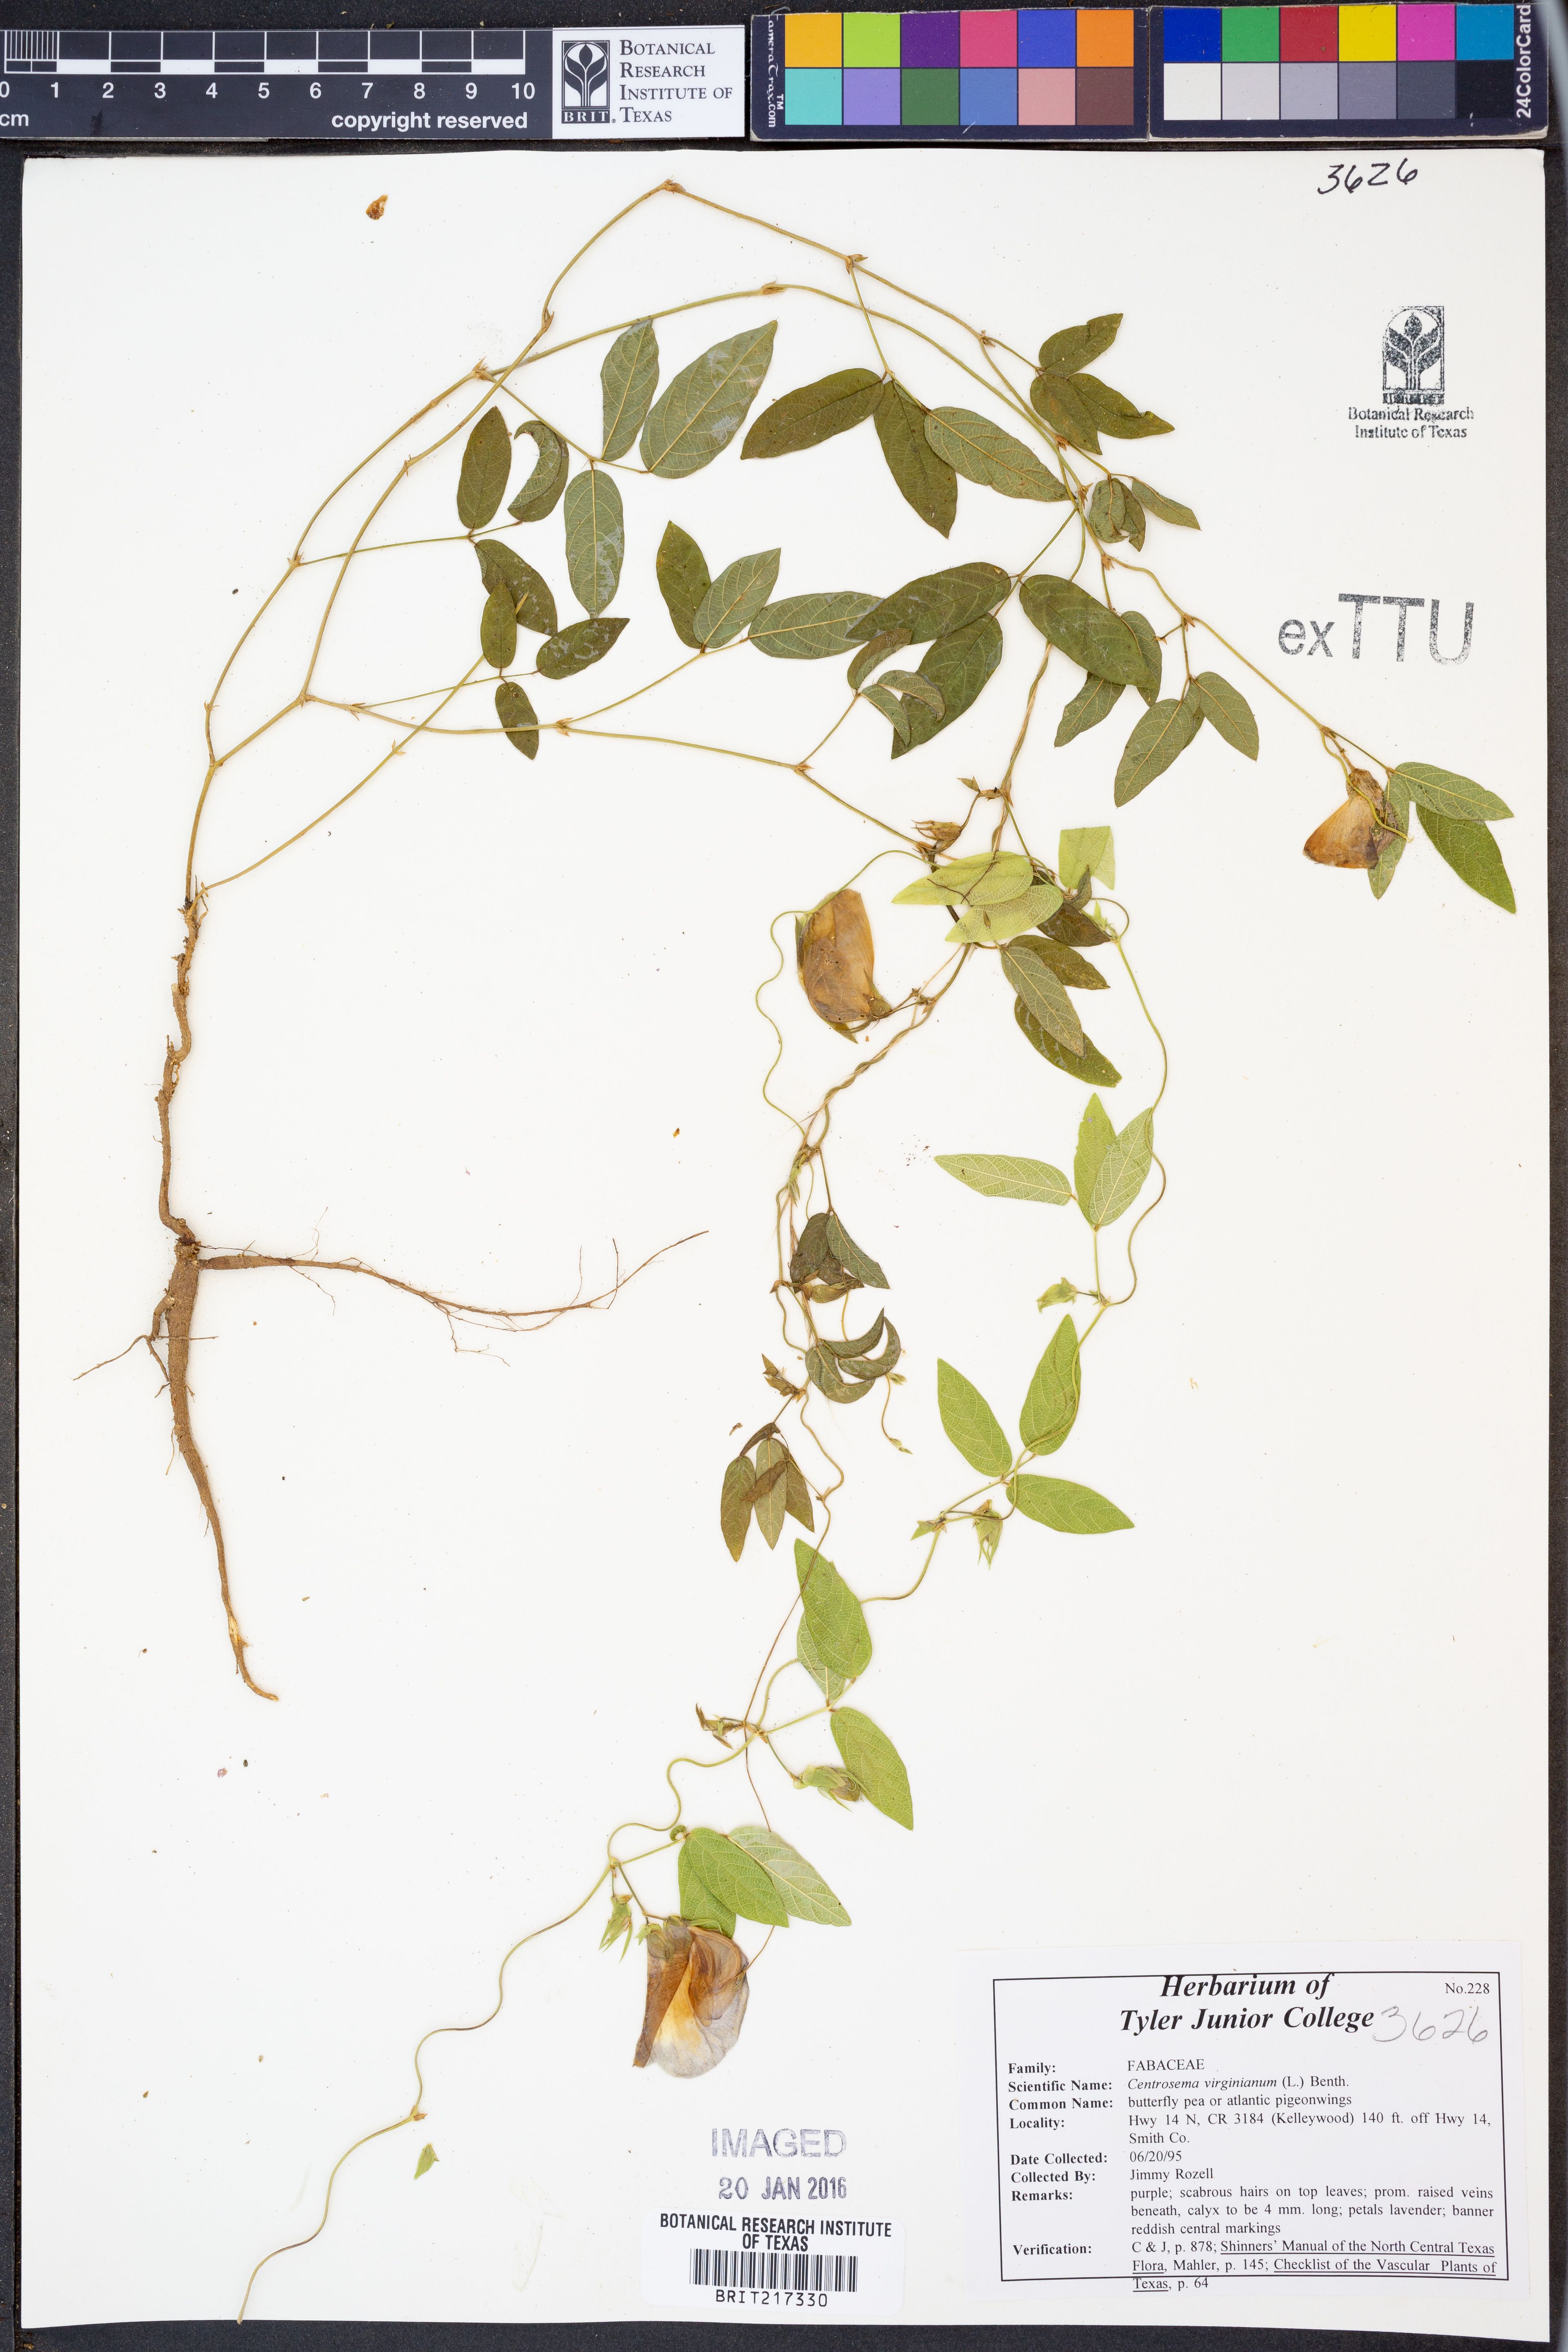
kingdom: Plantae
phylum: Tracheophyta
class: Magnoliopsida
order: Fabales
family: Fabaceae
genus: Centrosema
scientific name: Centrosema virginianum
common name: Butterfly-pea
